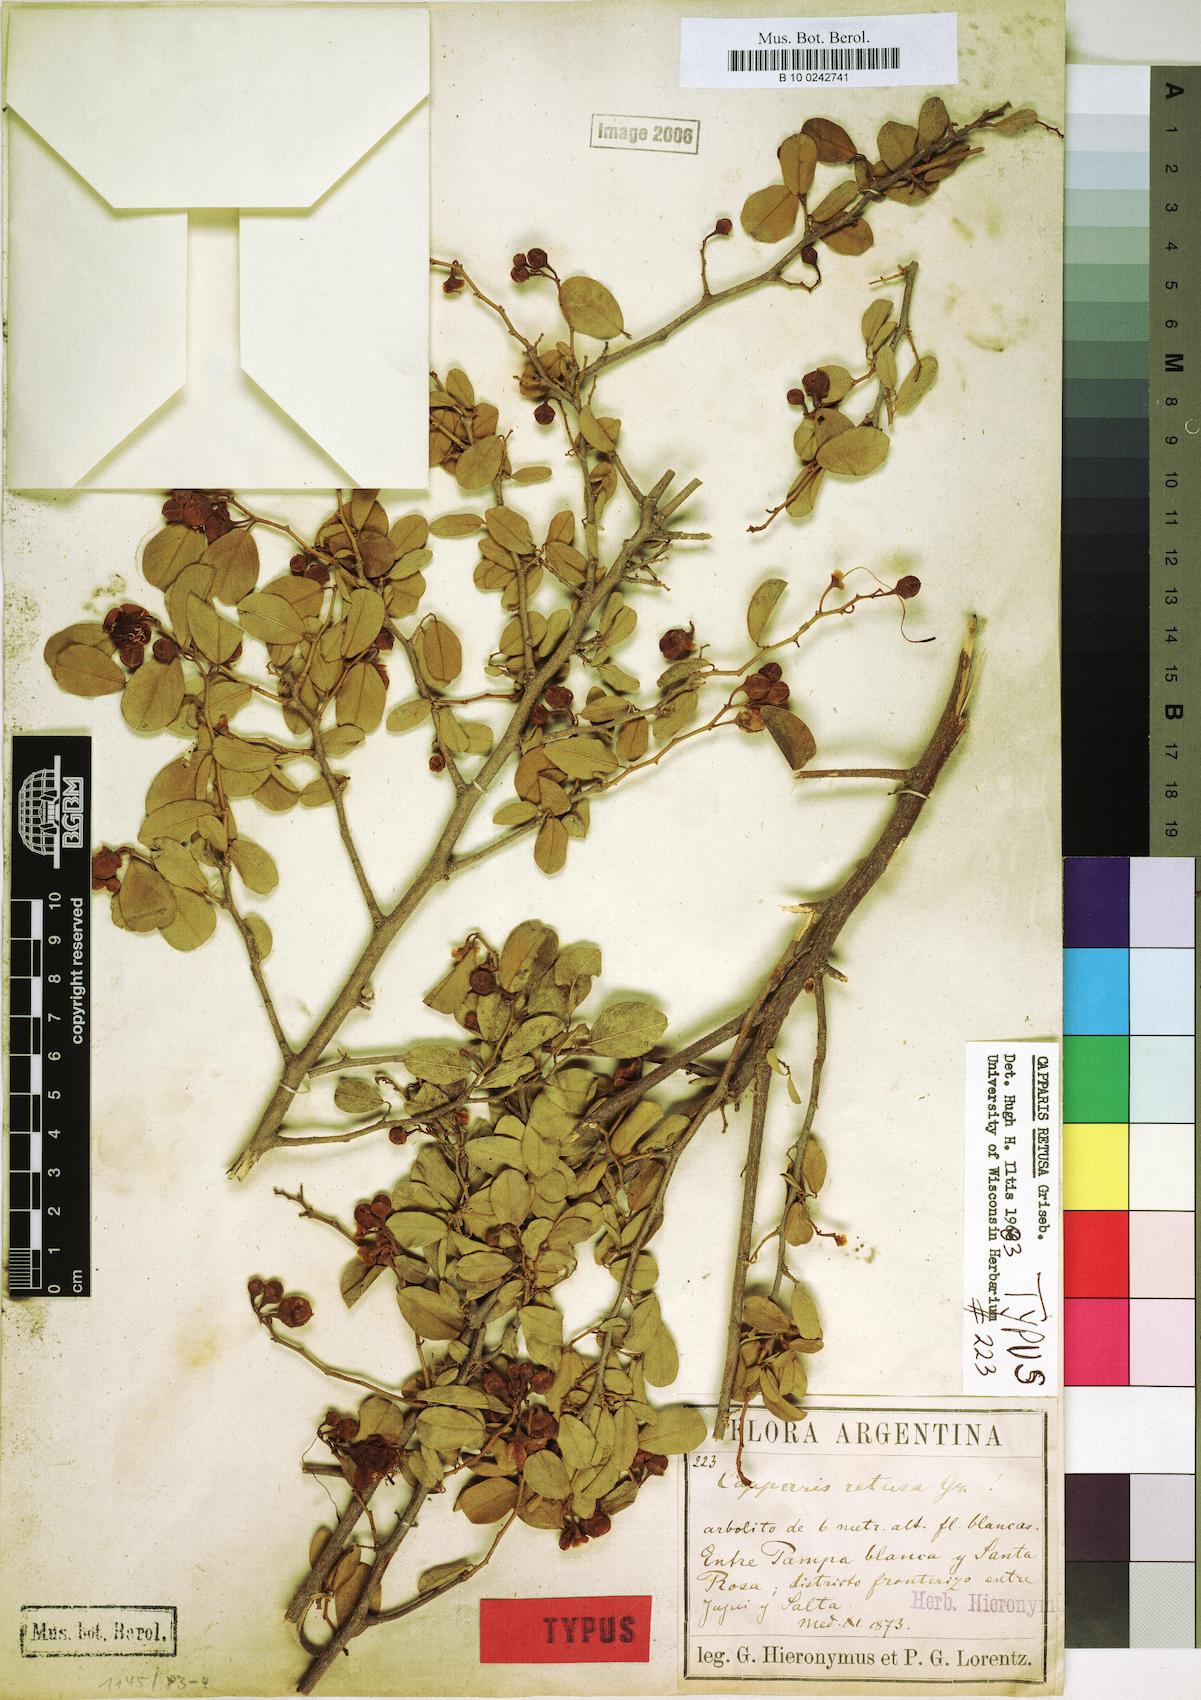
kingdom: Plantae
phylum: Tracheophyta
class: Magnoliopsida
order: Brassicales
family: Capparaceae
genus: Cynophalla
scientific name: Cynophalla retusa
